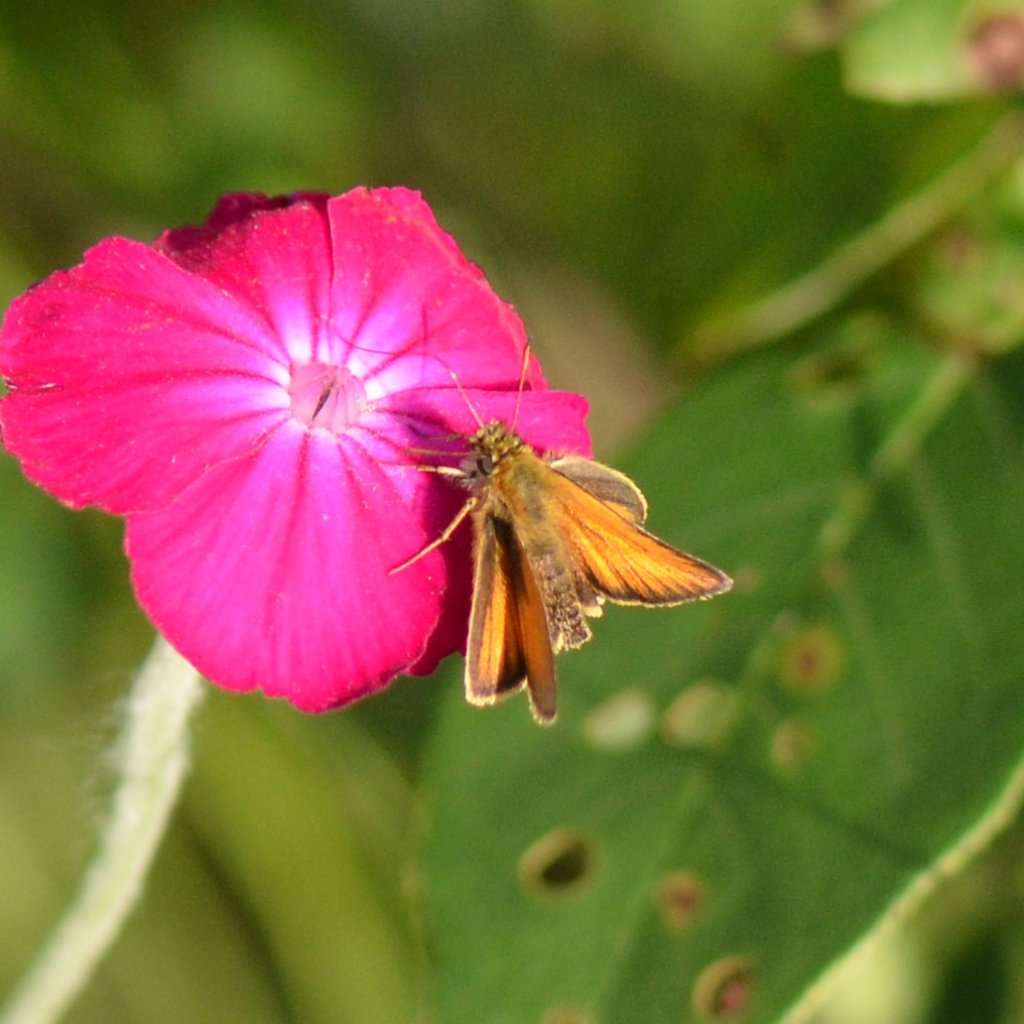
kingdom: Animalia
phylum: Arthropoda
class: Insecta
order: Lepidoptera
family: Hesperiidae
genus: Thymelicus
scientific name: Thymelicus lineola
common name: European Skipper
